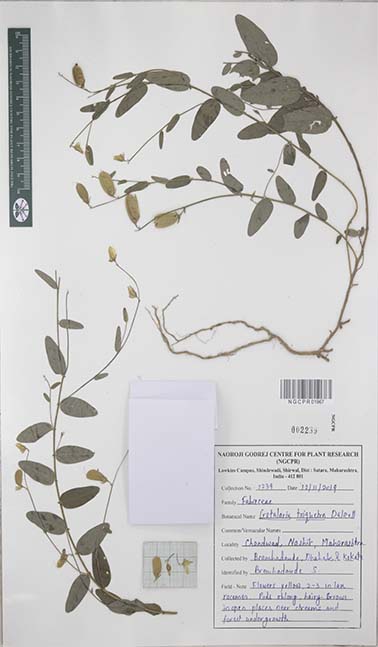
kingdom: Plantae
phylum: Tracheophyta
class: Magnoliopsida
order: Fabales
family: Fabaceae
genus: Crotalaria
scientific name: Crotalaria triquetra
